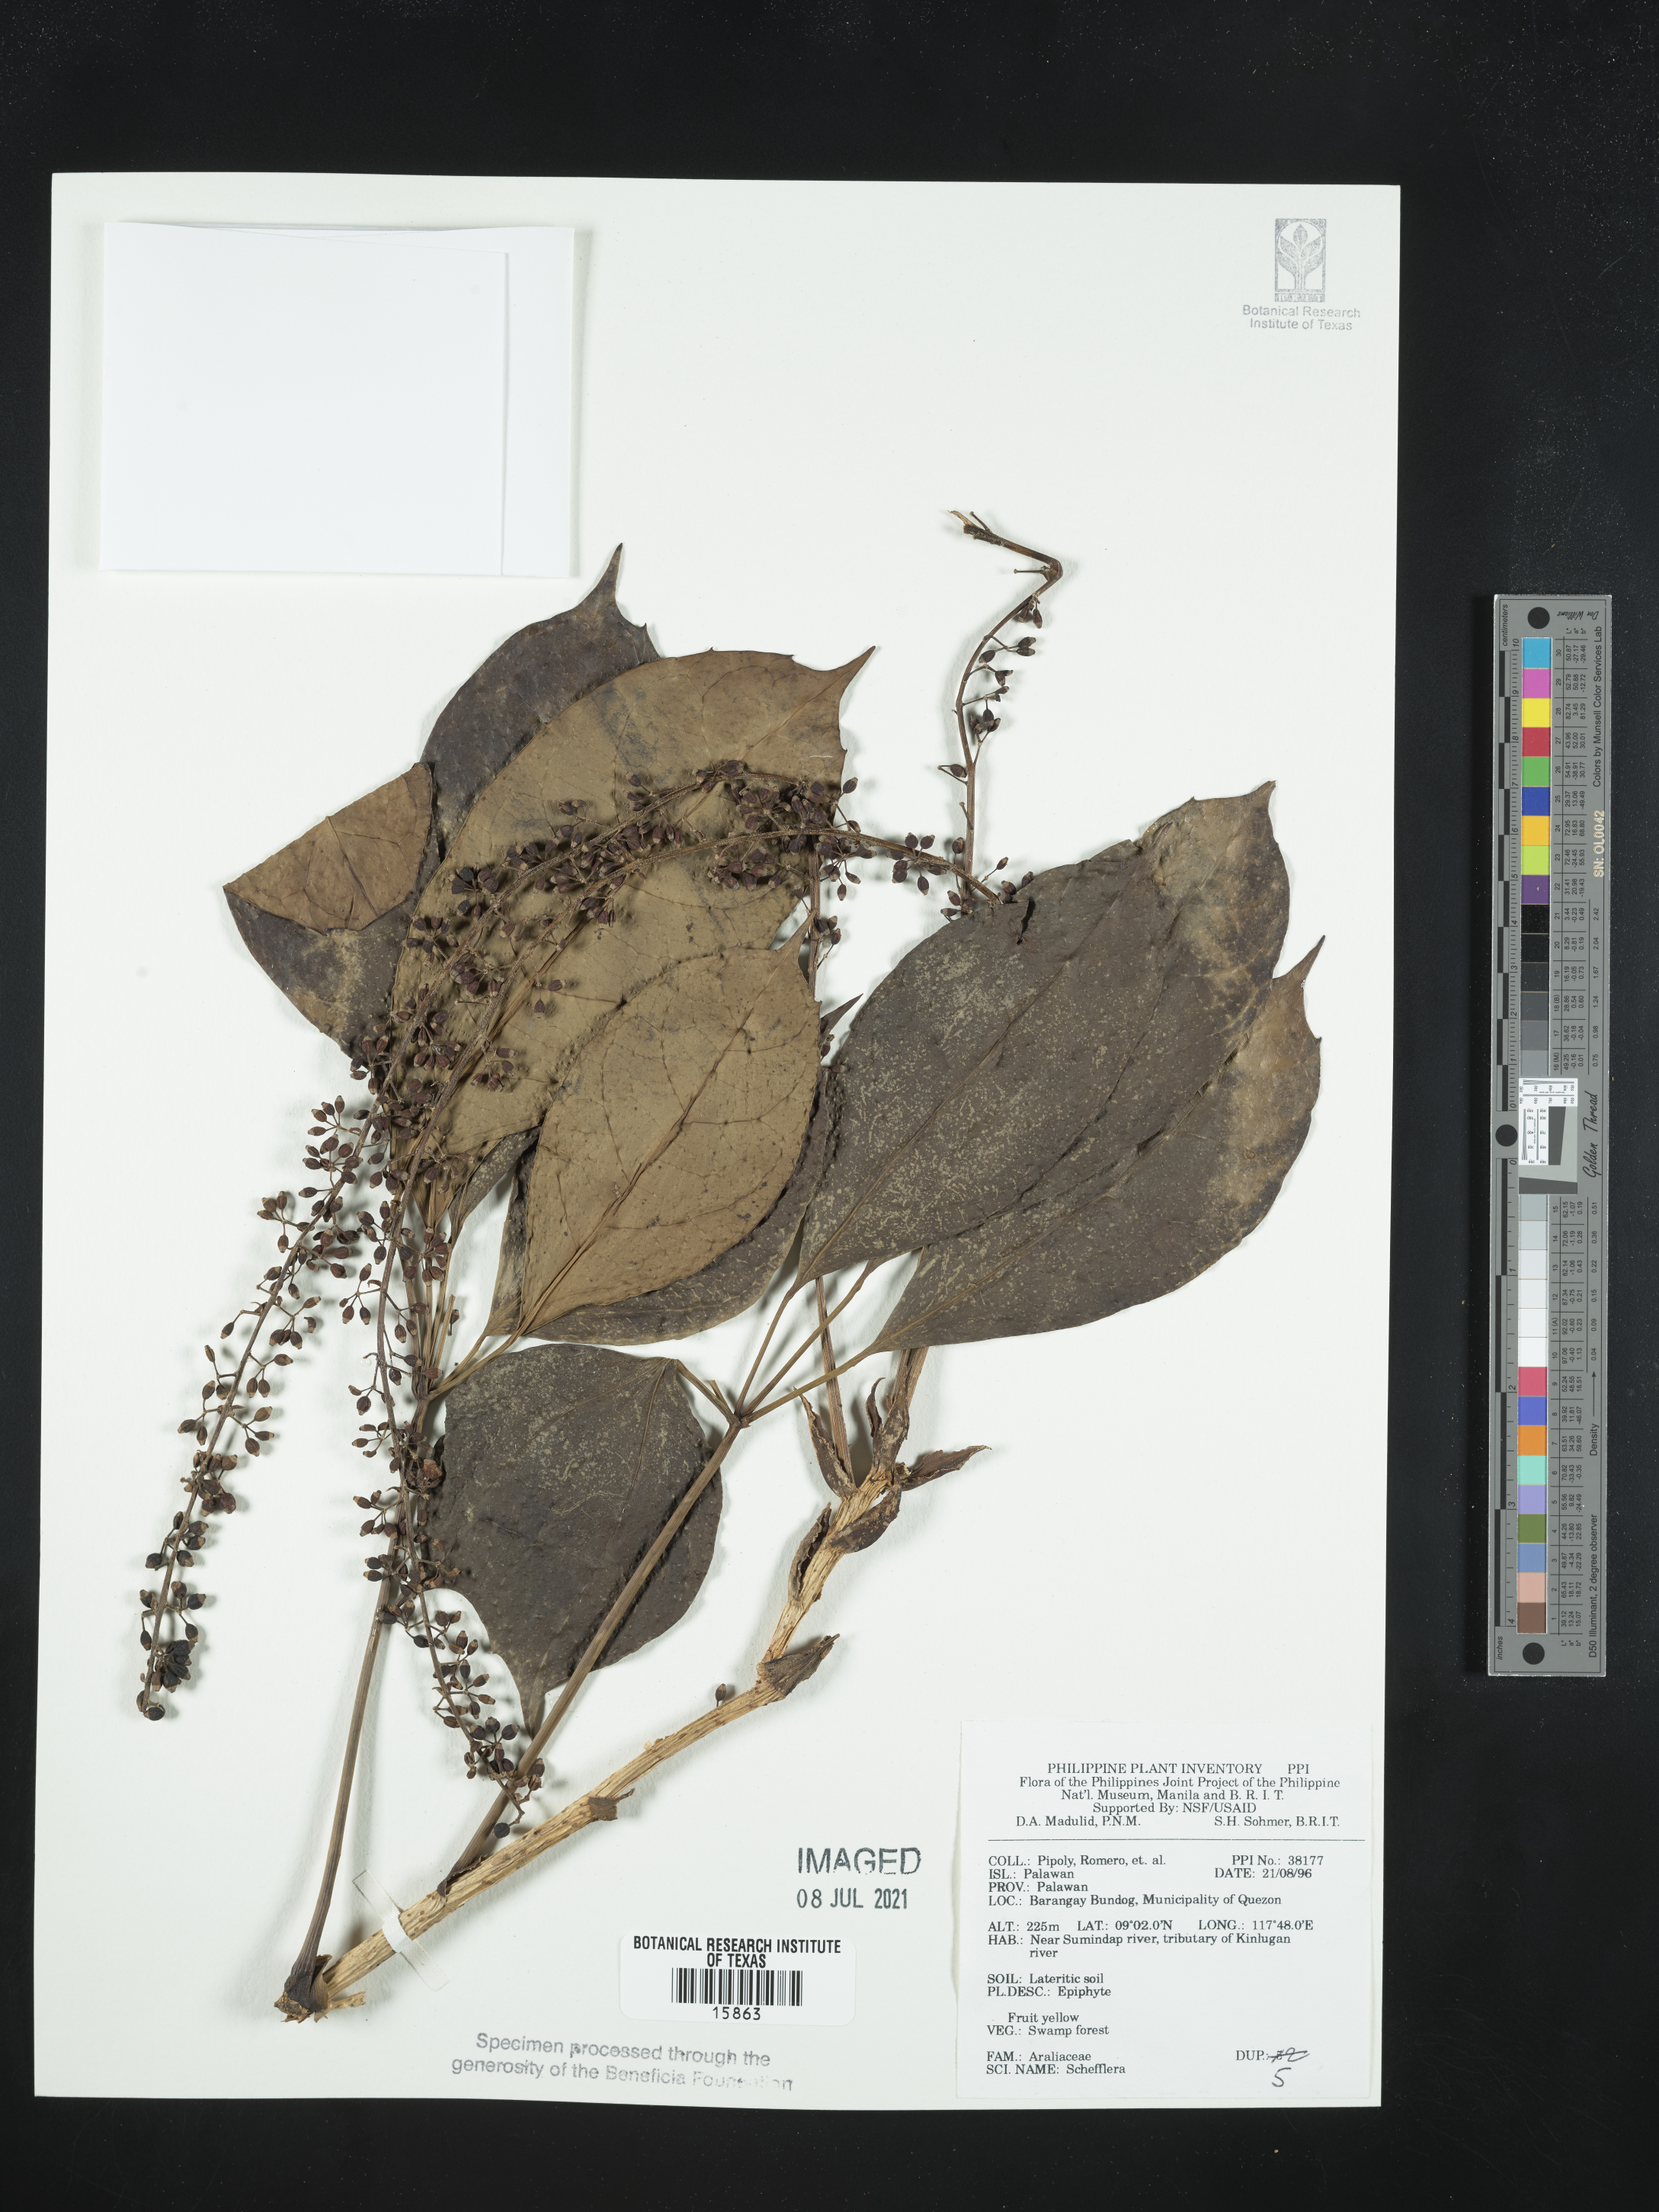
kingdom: Plantae
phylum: Tracheophyta
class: Magnoliopsida
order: Apiales
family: Araliaceae
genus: Schefflera
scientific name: Schefflera
